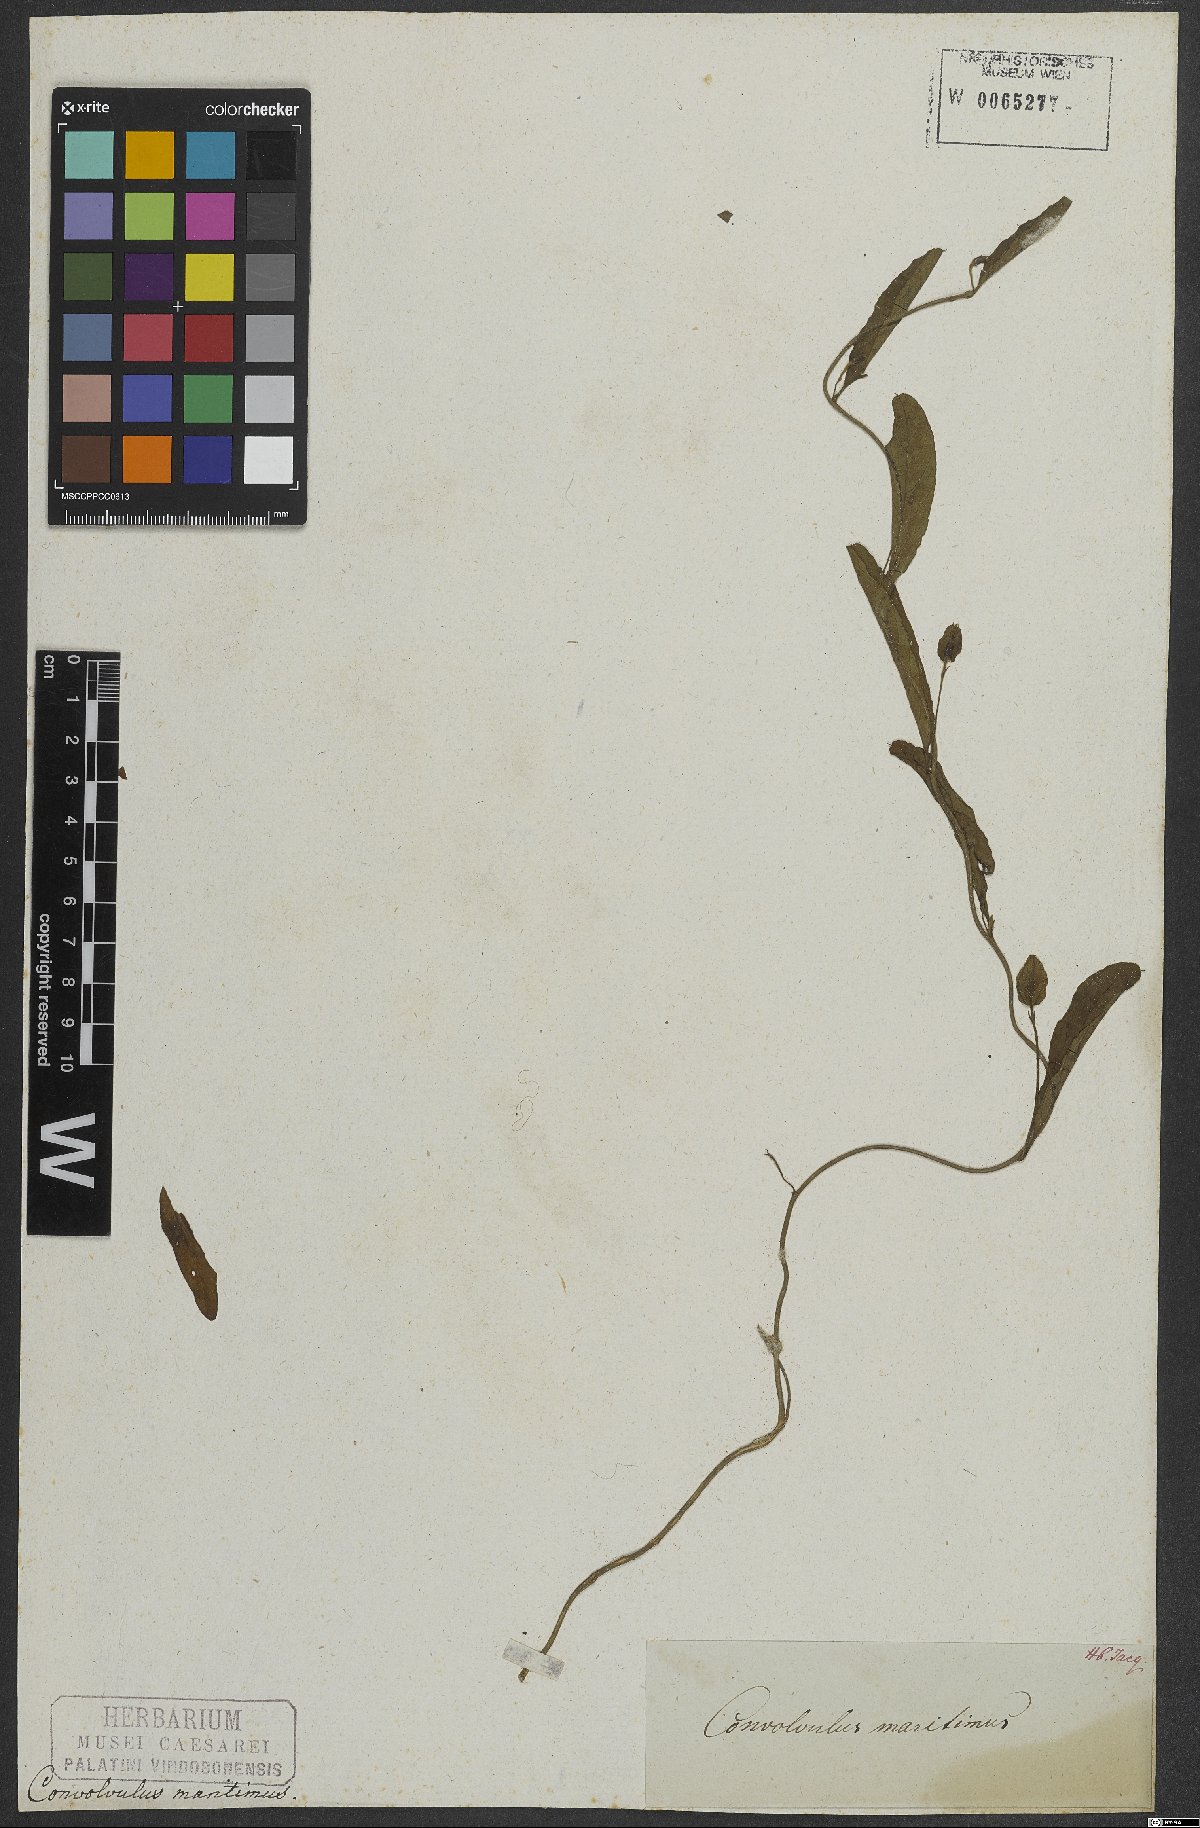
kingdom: Plantae
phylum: Tracheophyta
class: Magnoliopsida
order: Solanales
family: Convolvulaceae
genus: Aniseia
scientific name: Aniseia martinicensis
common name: Kulayadambu
